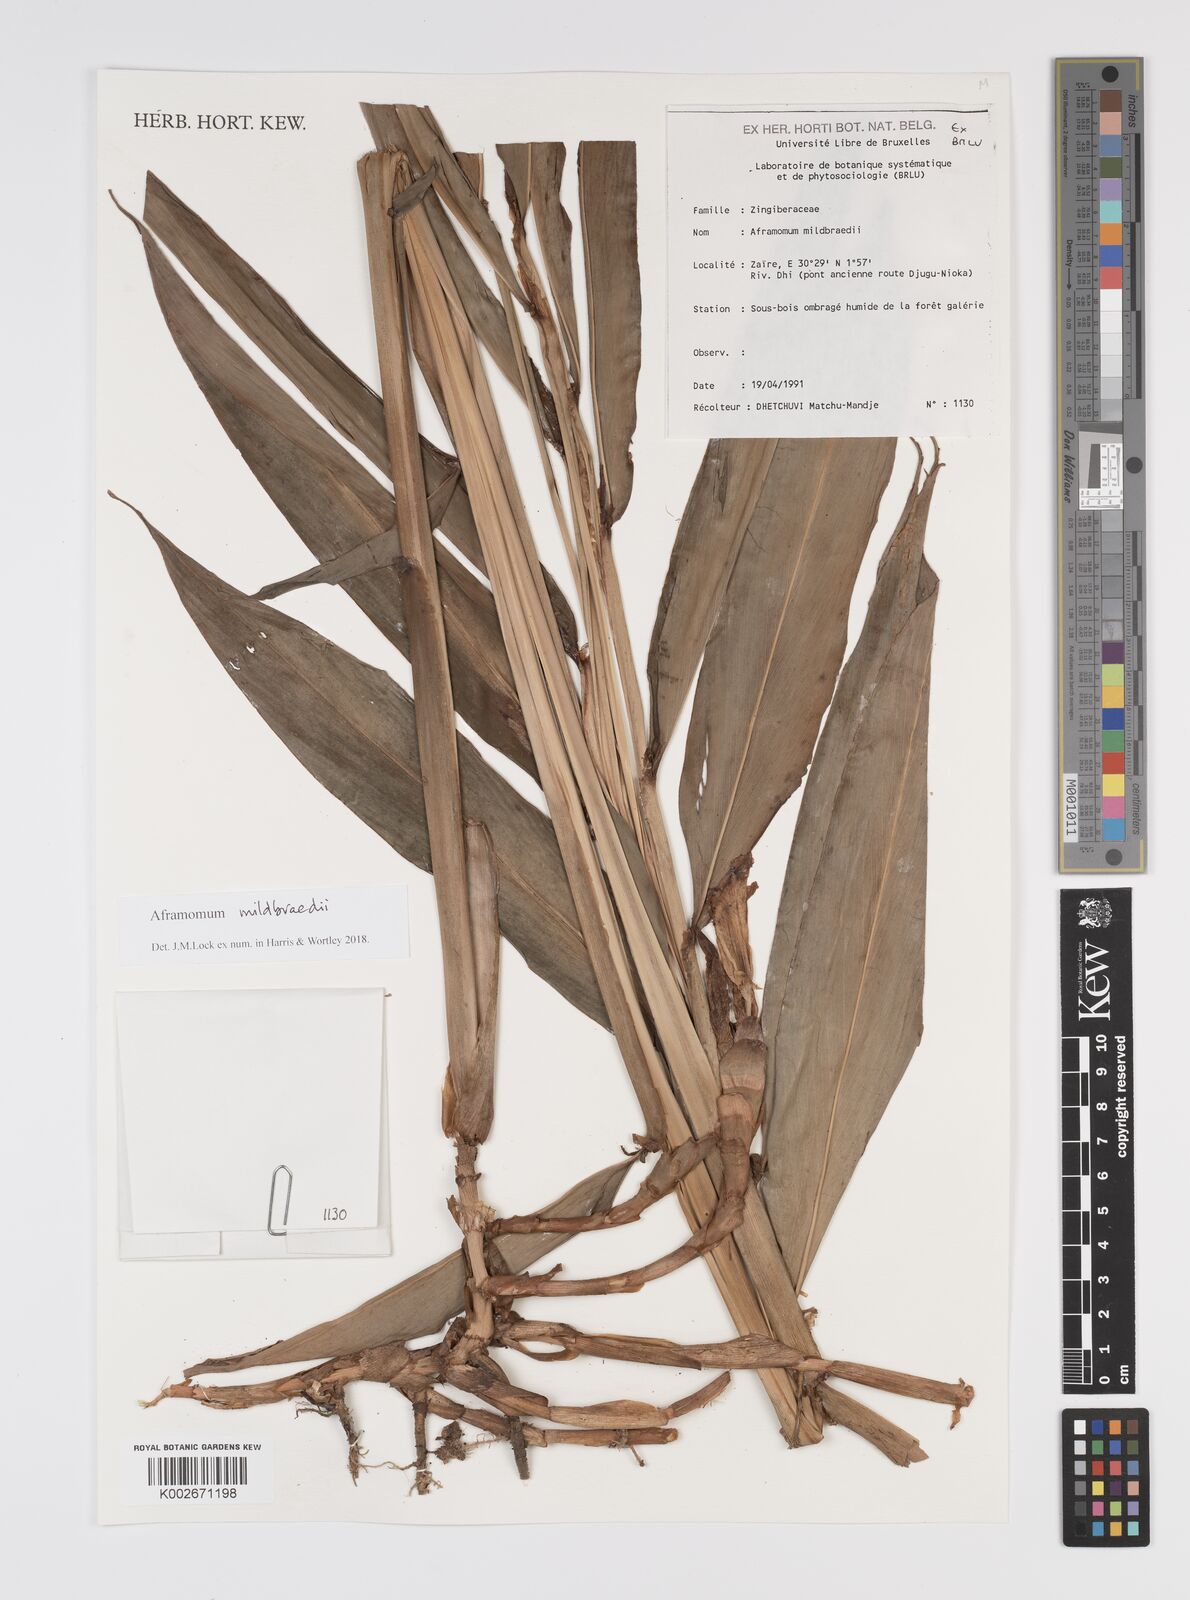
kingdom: Plantae
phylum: Tracheophyta
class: Liliopsida
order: Zingiberales
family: Zingiberaceae
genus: Aframomum
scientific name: Aframomum mildbraedii
